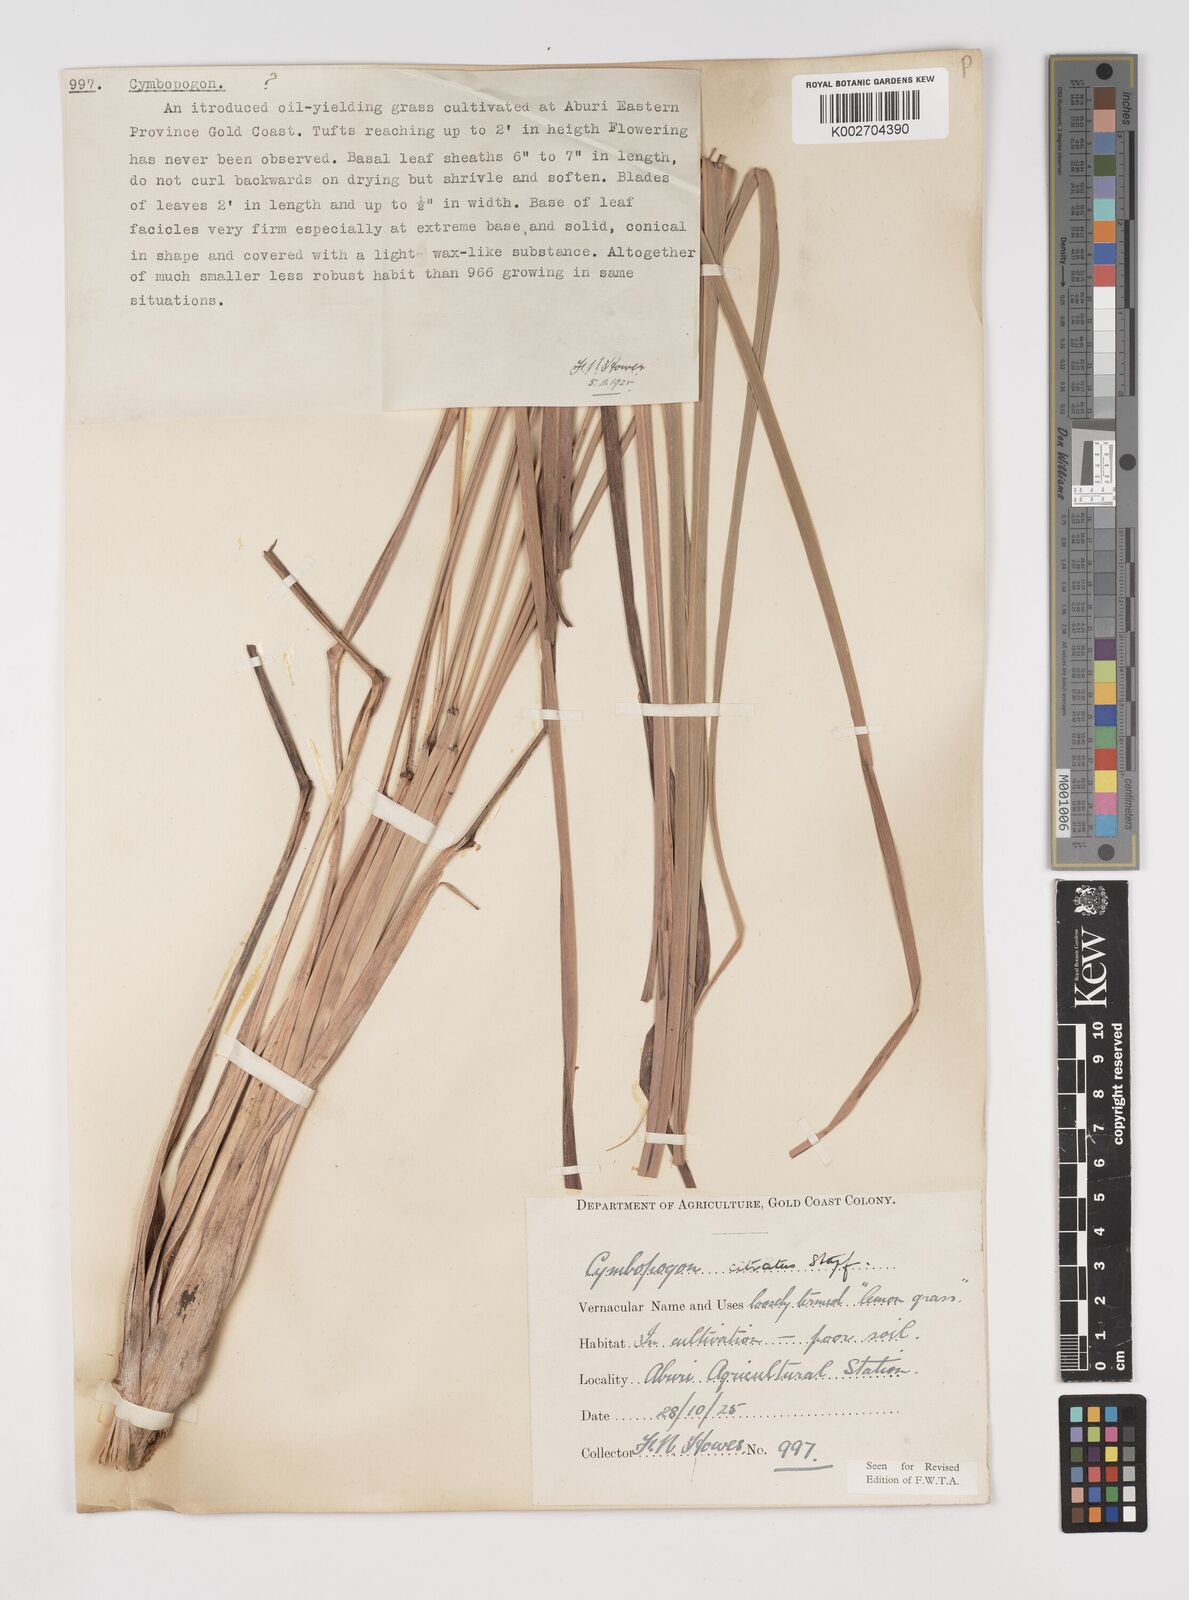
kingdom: Plantae
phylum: Tracheophyta
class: Liliopsida
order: Poales
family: Poaceae
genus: Cymbopogon
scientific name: Cymbopogon citratus
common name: Lemon grass
